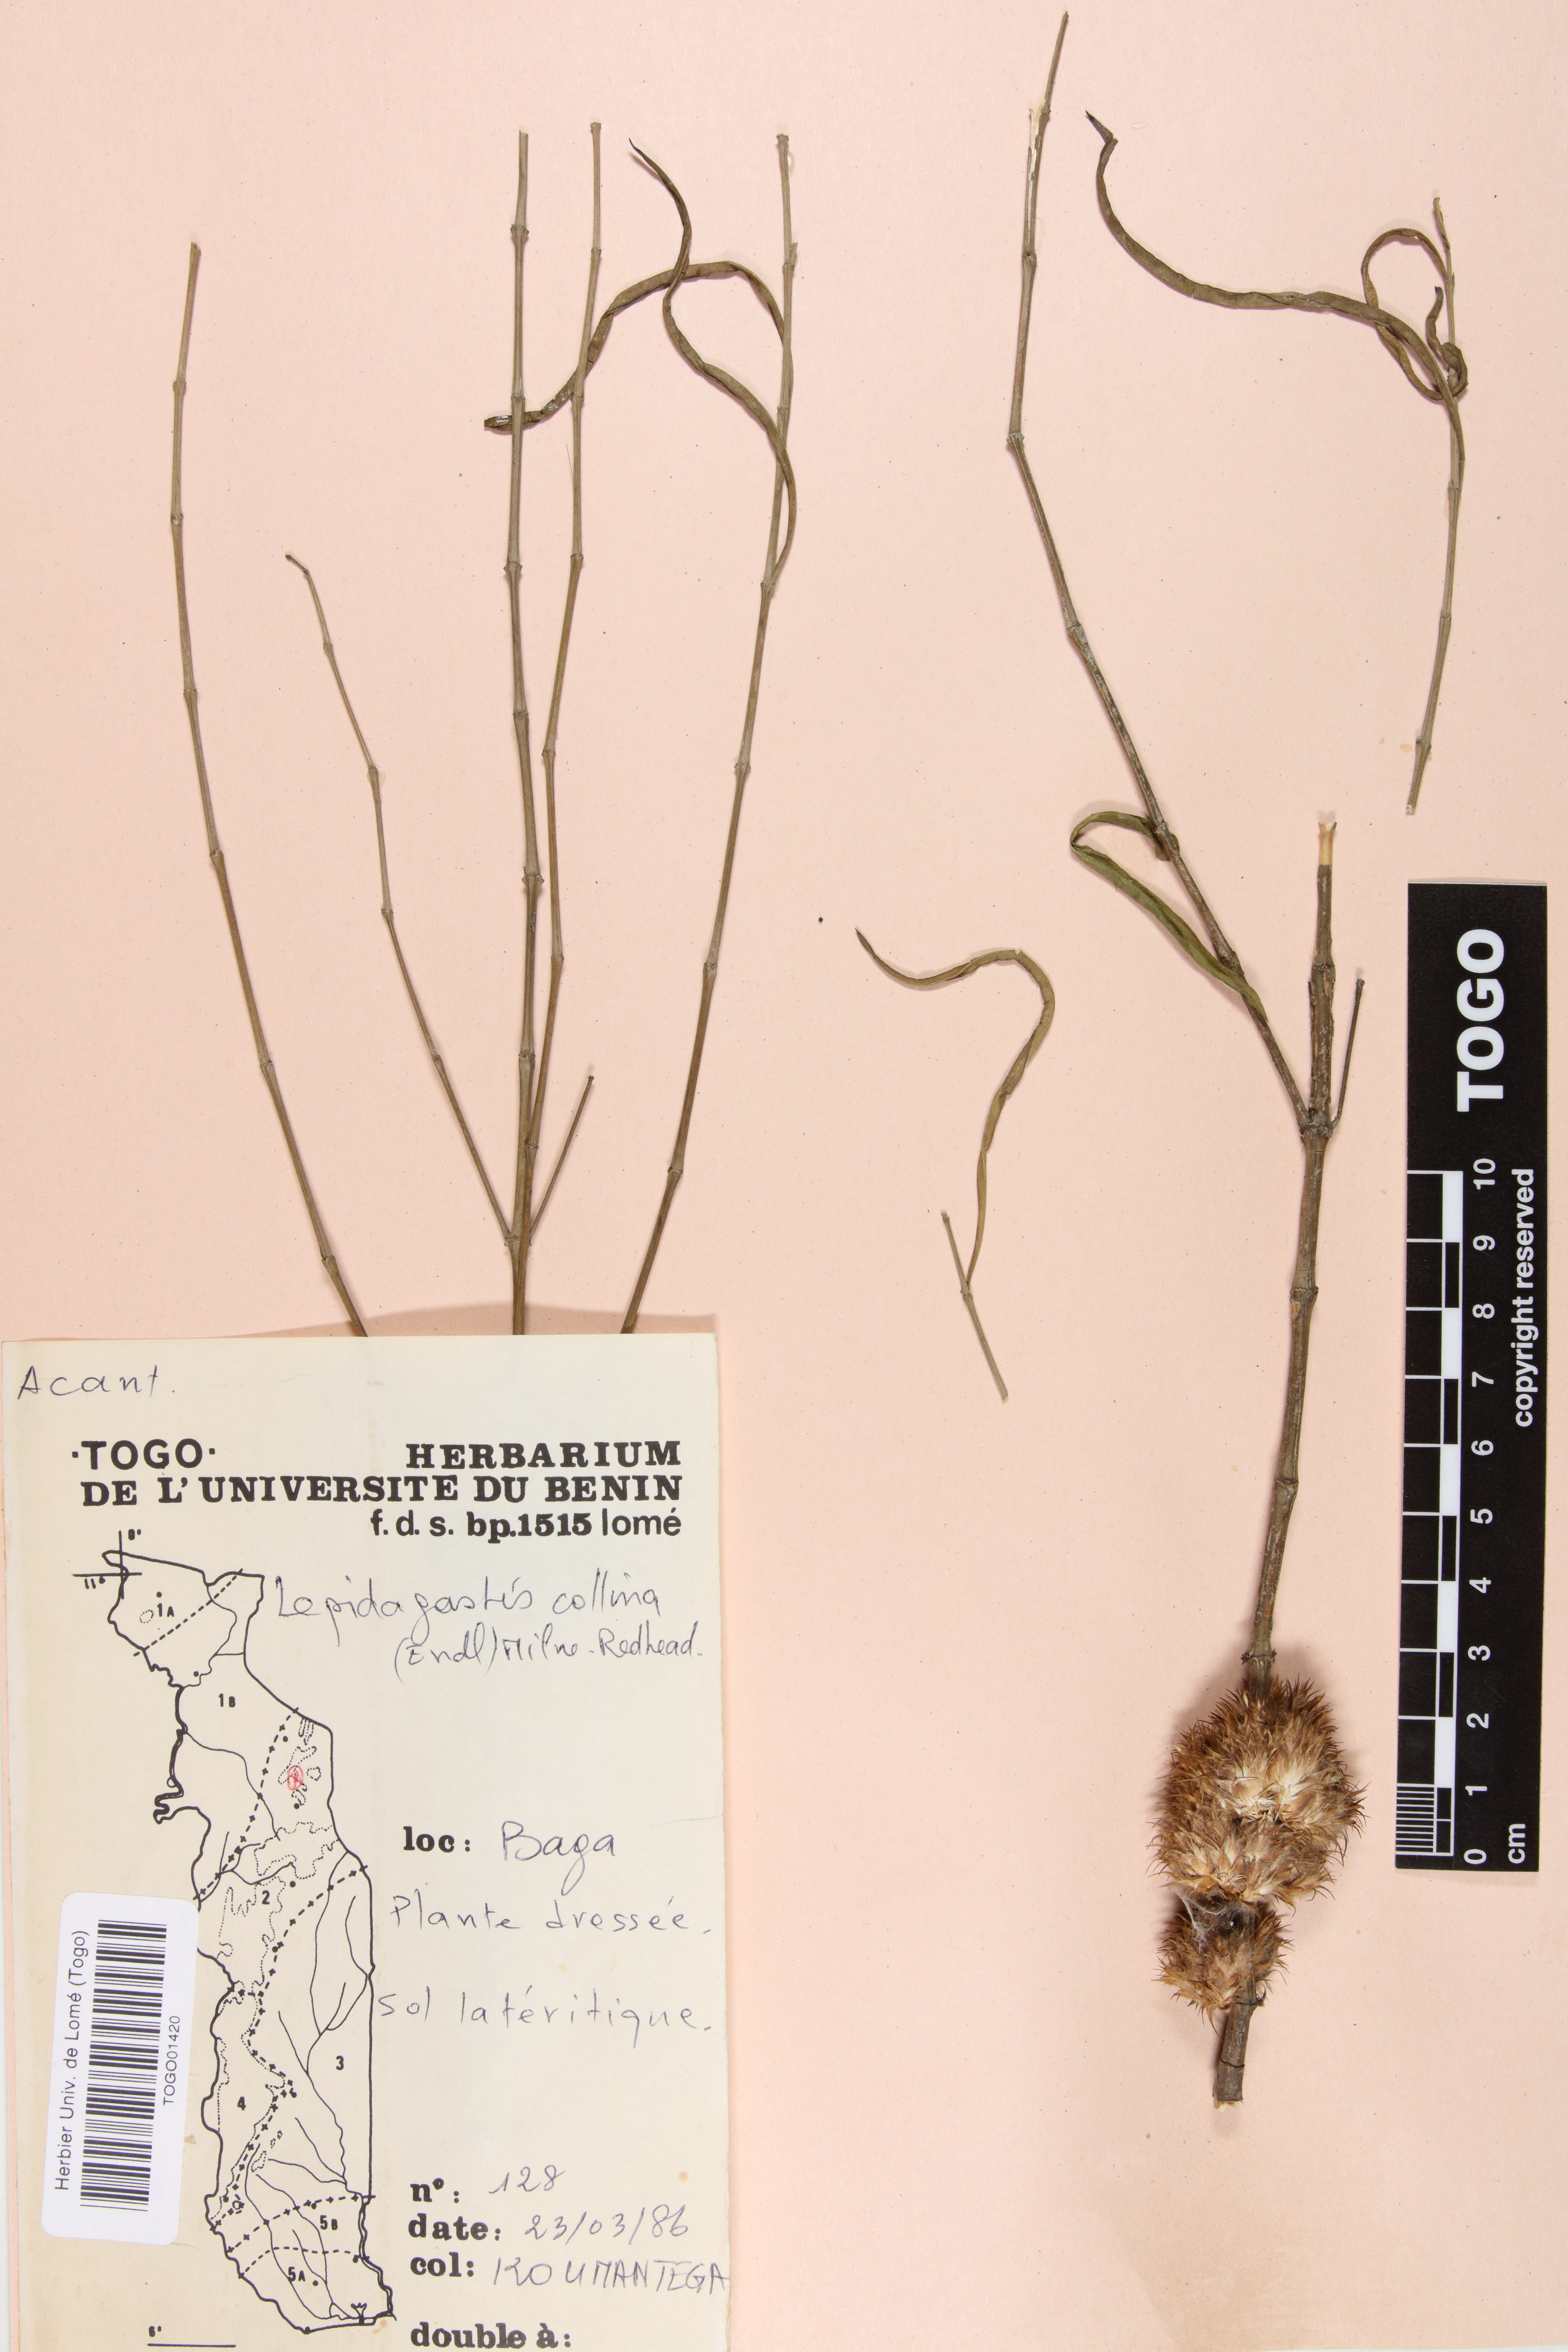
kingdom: Plantae
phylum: Tracheophyta
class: Magnoliopsida
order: Lamiales
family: Acanthaceae
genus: Lepidagathis
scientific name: Lepidagathis collina
